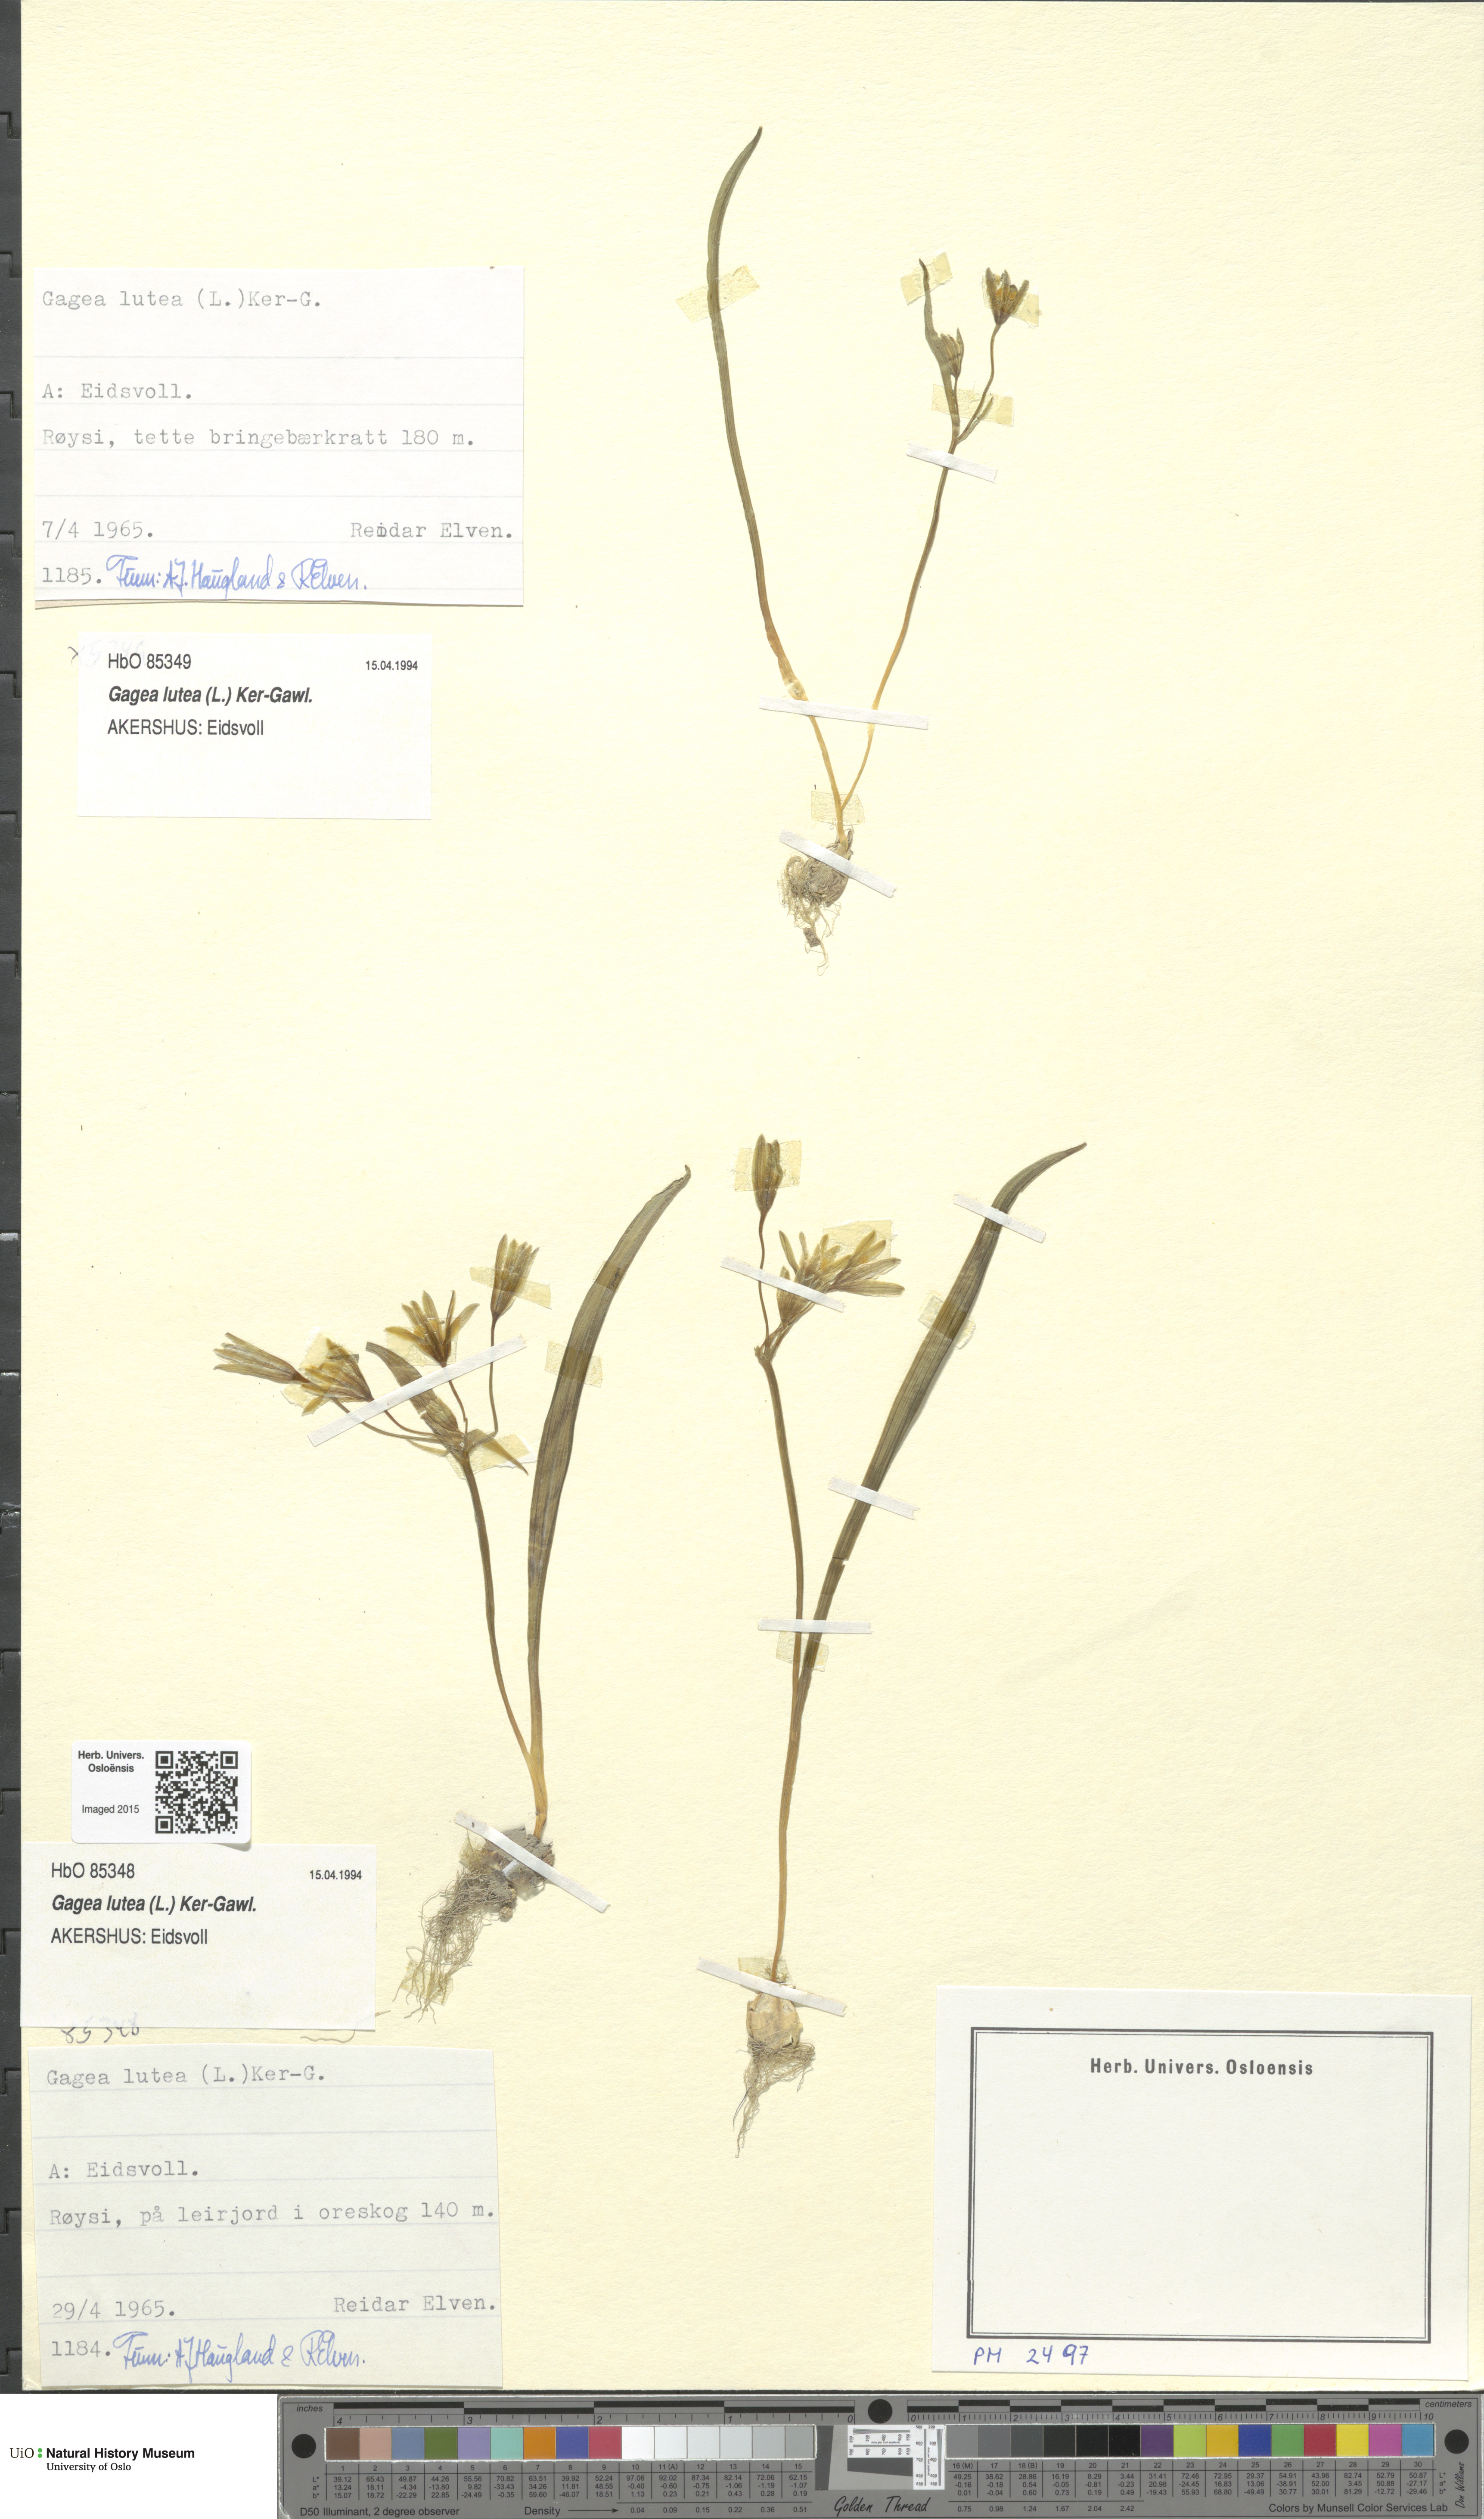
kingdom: Plantae
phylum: Tracheophyta
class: Liliopsida
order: Liliales
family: Liliaceae
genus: Gagea
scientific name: Gagea lutea
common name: Yellow star-of-bethlehem
